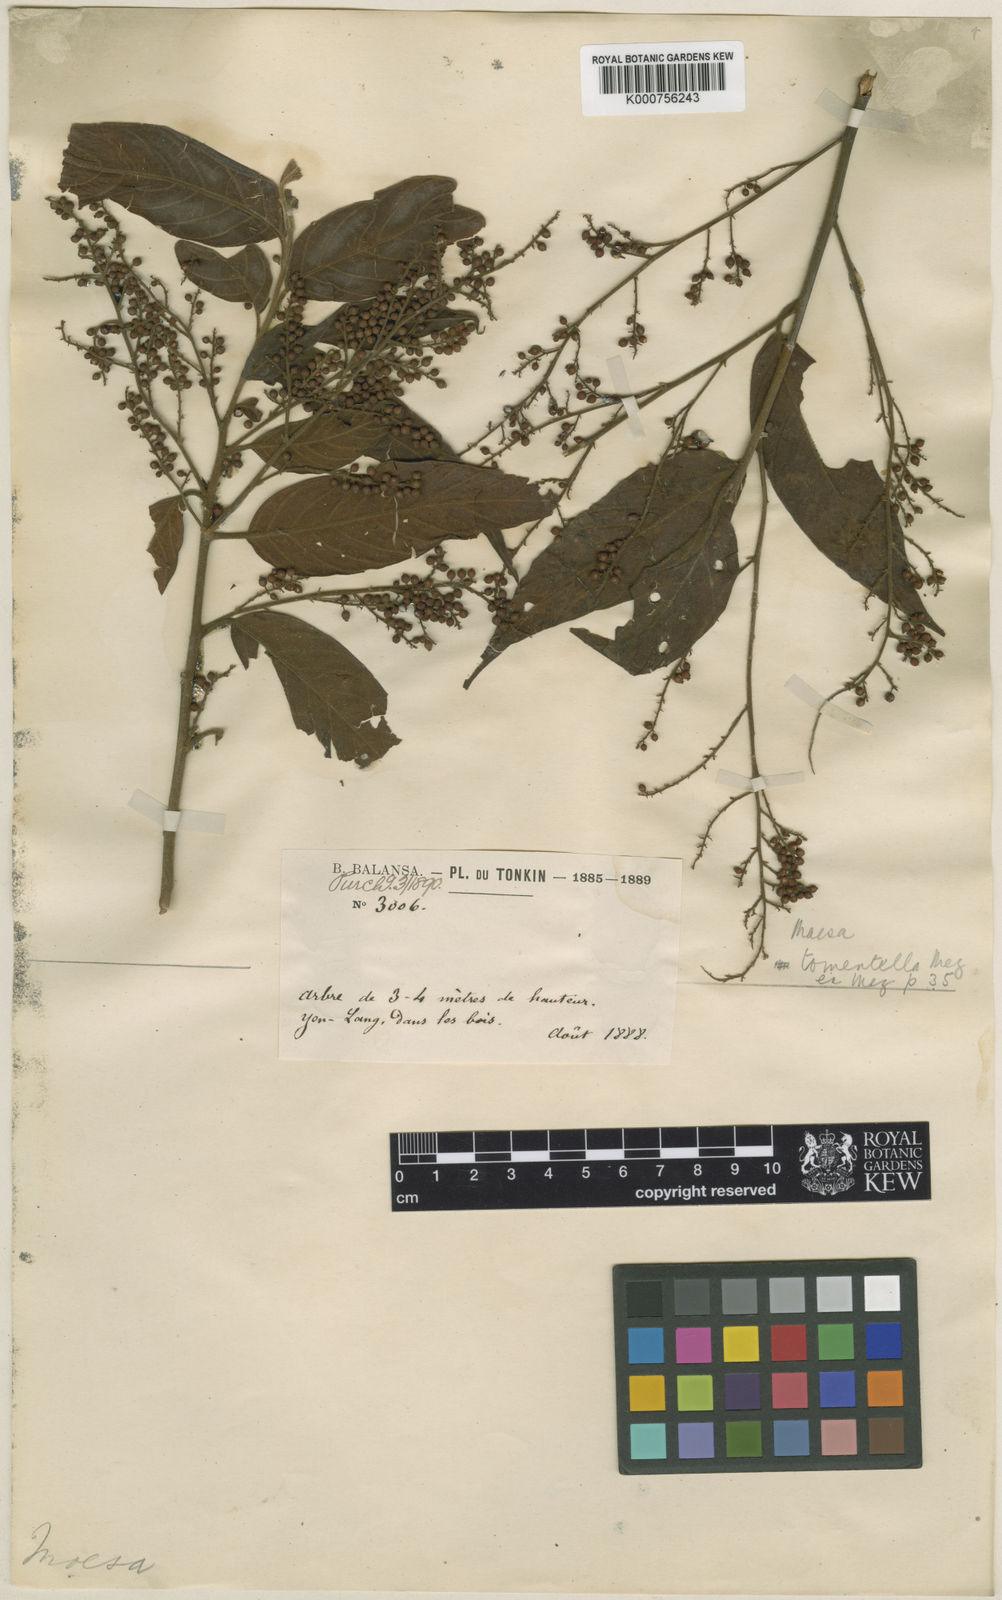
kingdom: Plantae
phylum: Tracheophyta
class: Magnoliopsida
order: Ericales
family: Primulaceae
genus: Maesa
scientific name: Maesa tomentella
